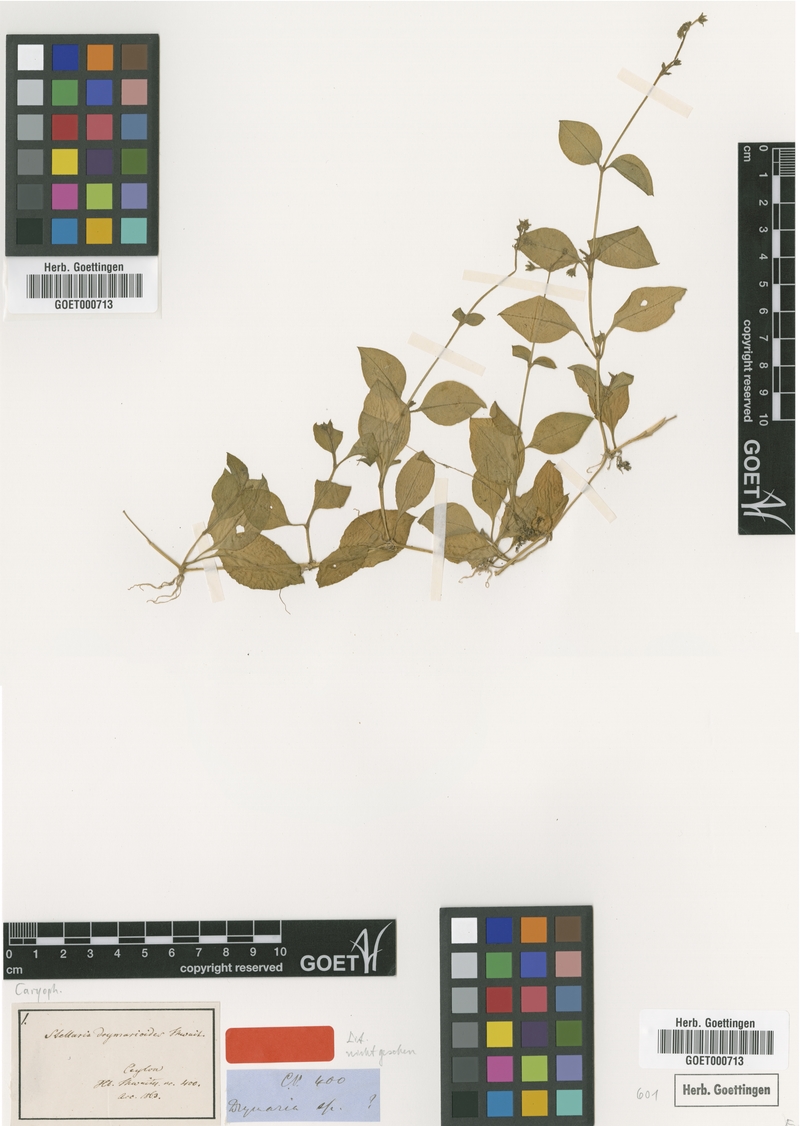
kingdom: Plantae
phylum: Tracheophyta
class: Magnoliopsida
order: Caryophyllales
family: Caryophyllaceae
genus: Stellaria
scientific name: Stellaria pauciflora
